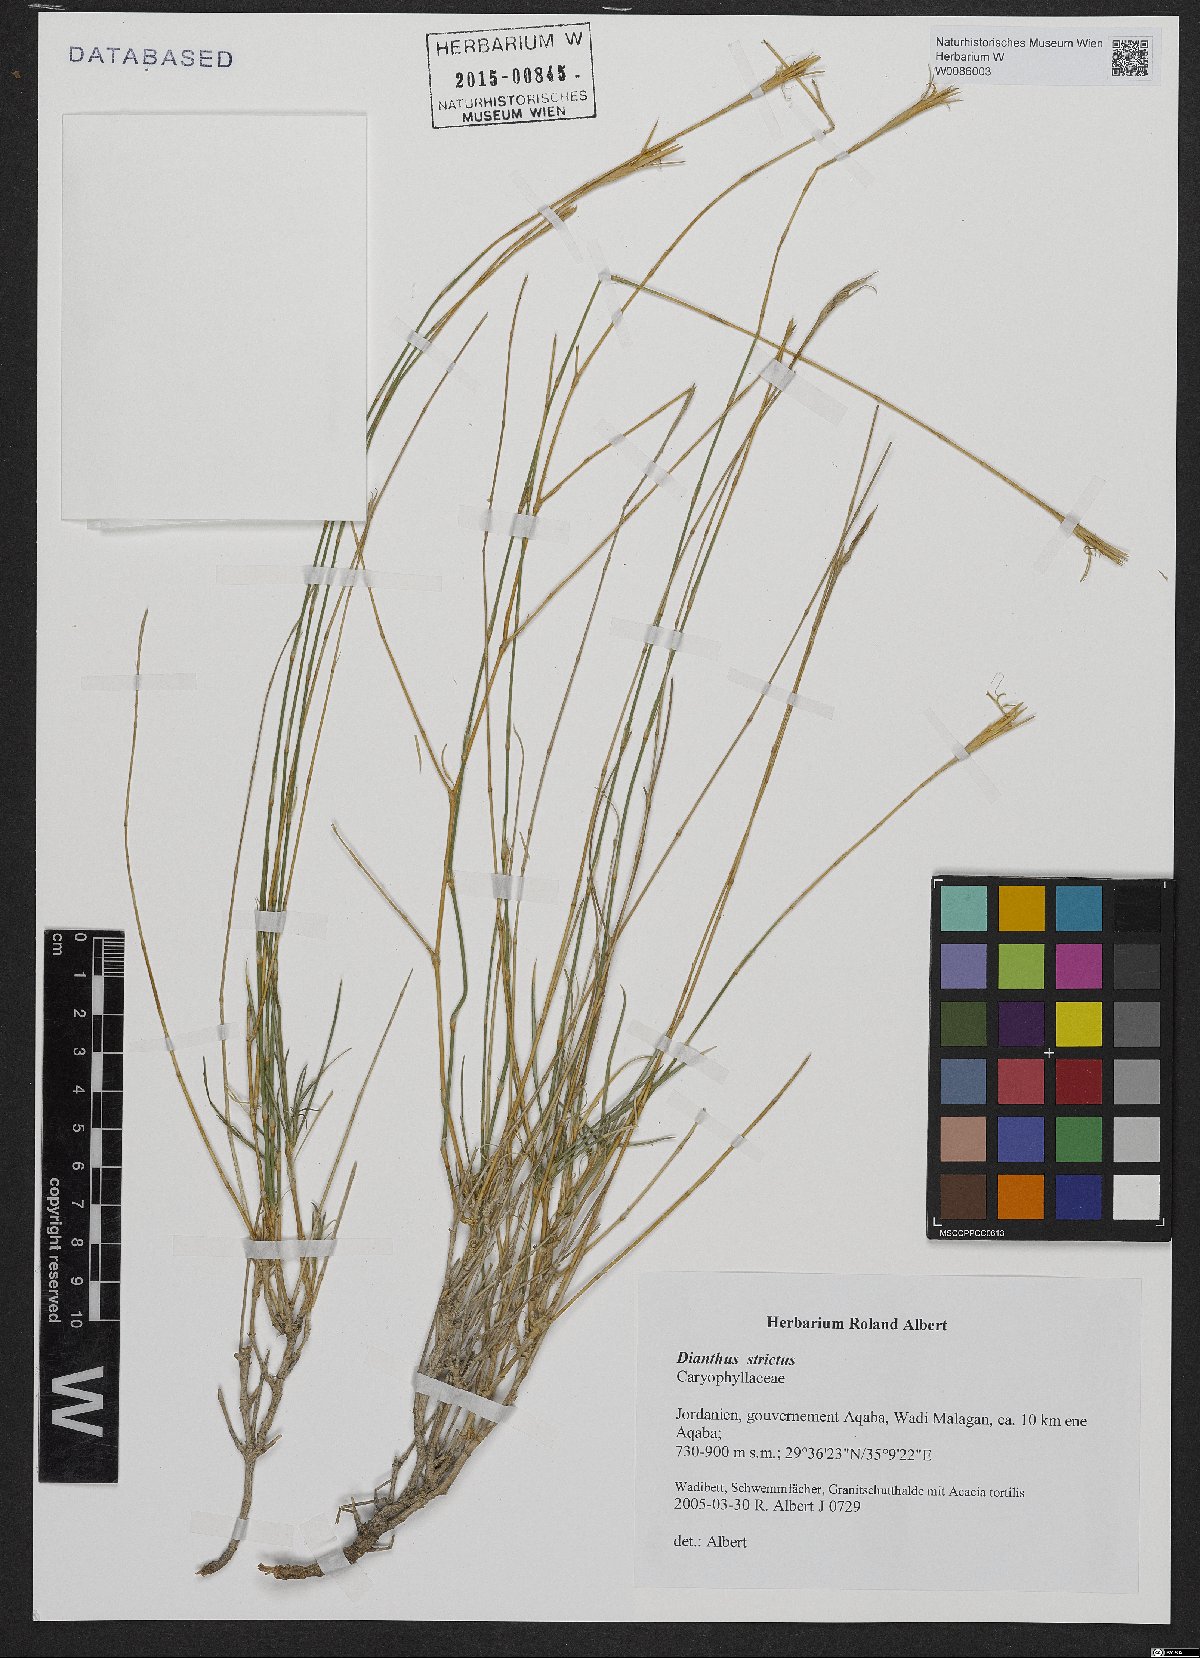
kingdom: Plantae
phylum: Tracheophyta
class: Magnoliopsida
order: Caryophyllales
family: Caryophyllaceae
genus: Dianthus
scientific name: Dianthus strictus
